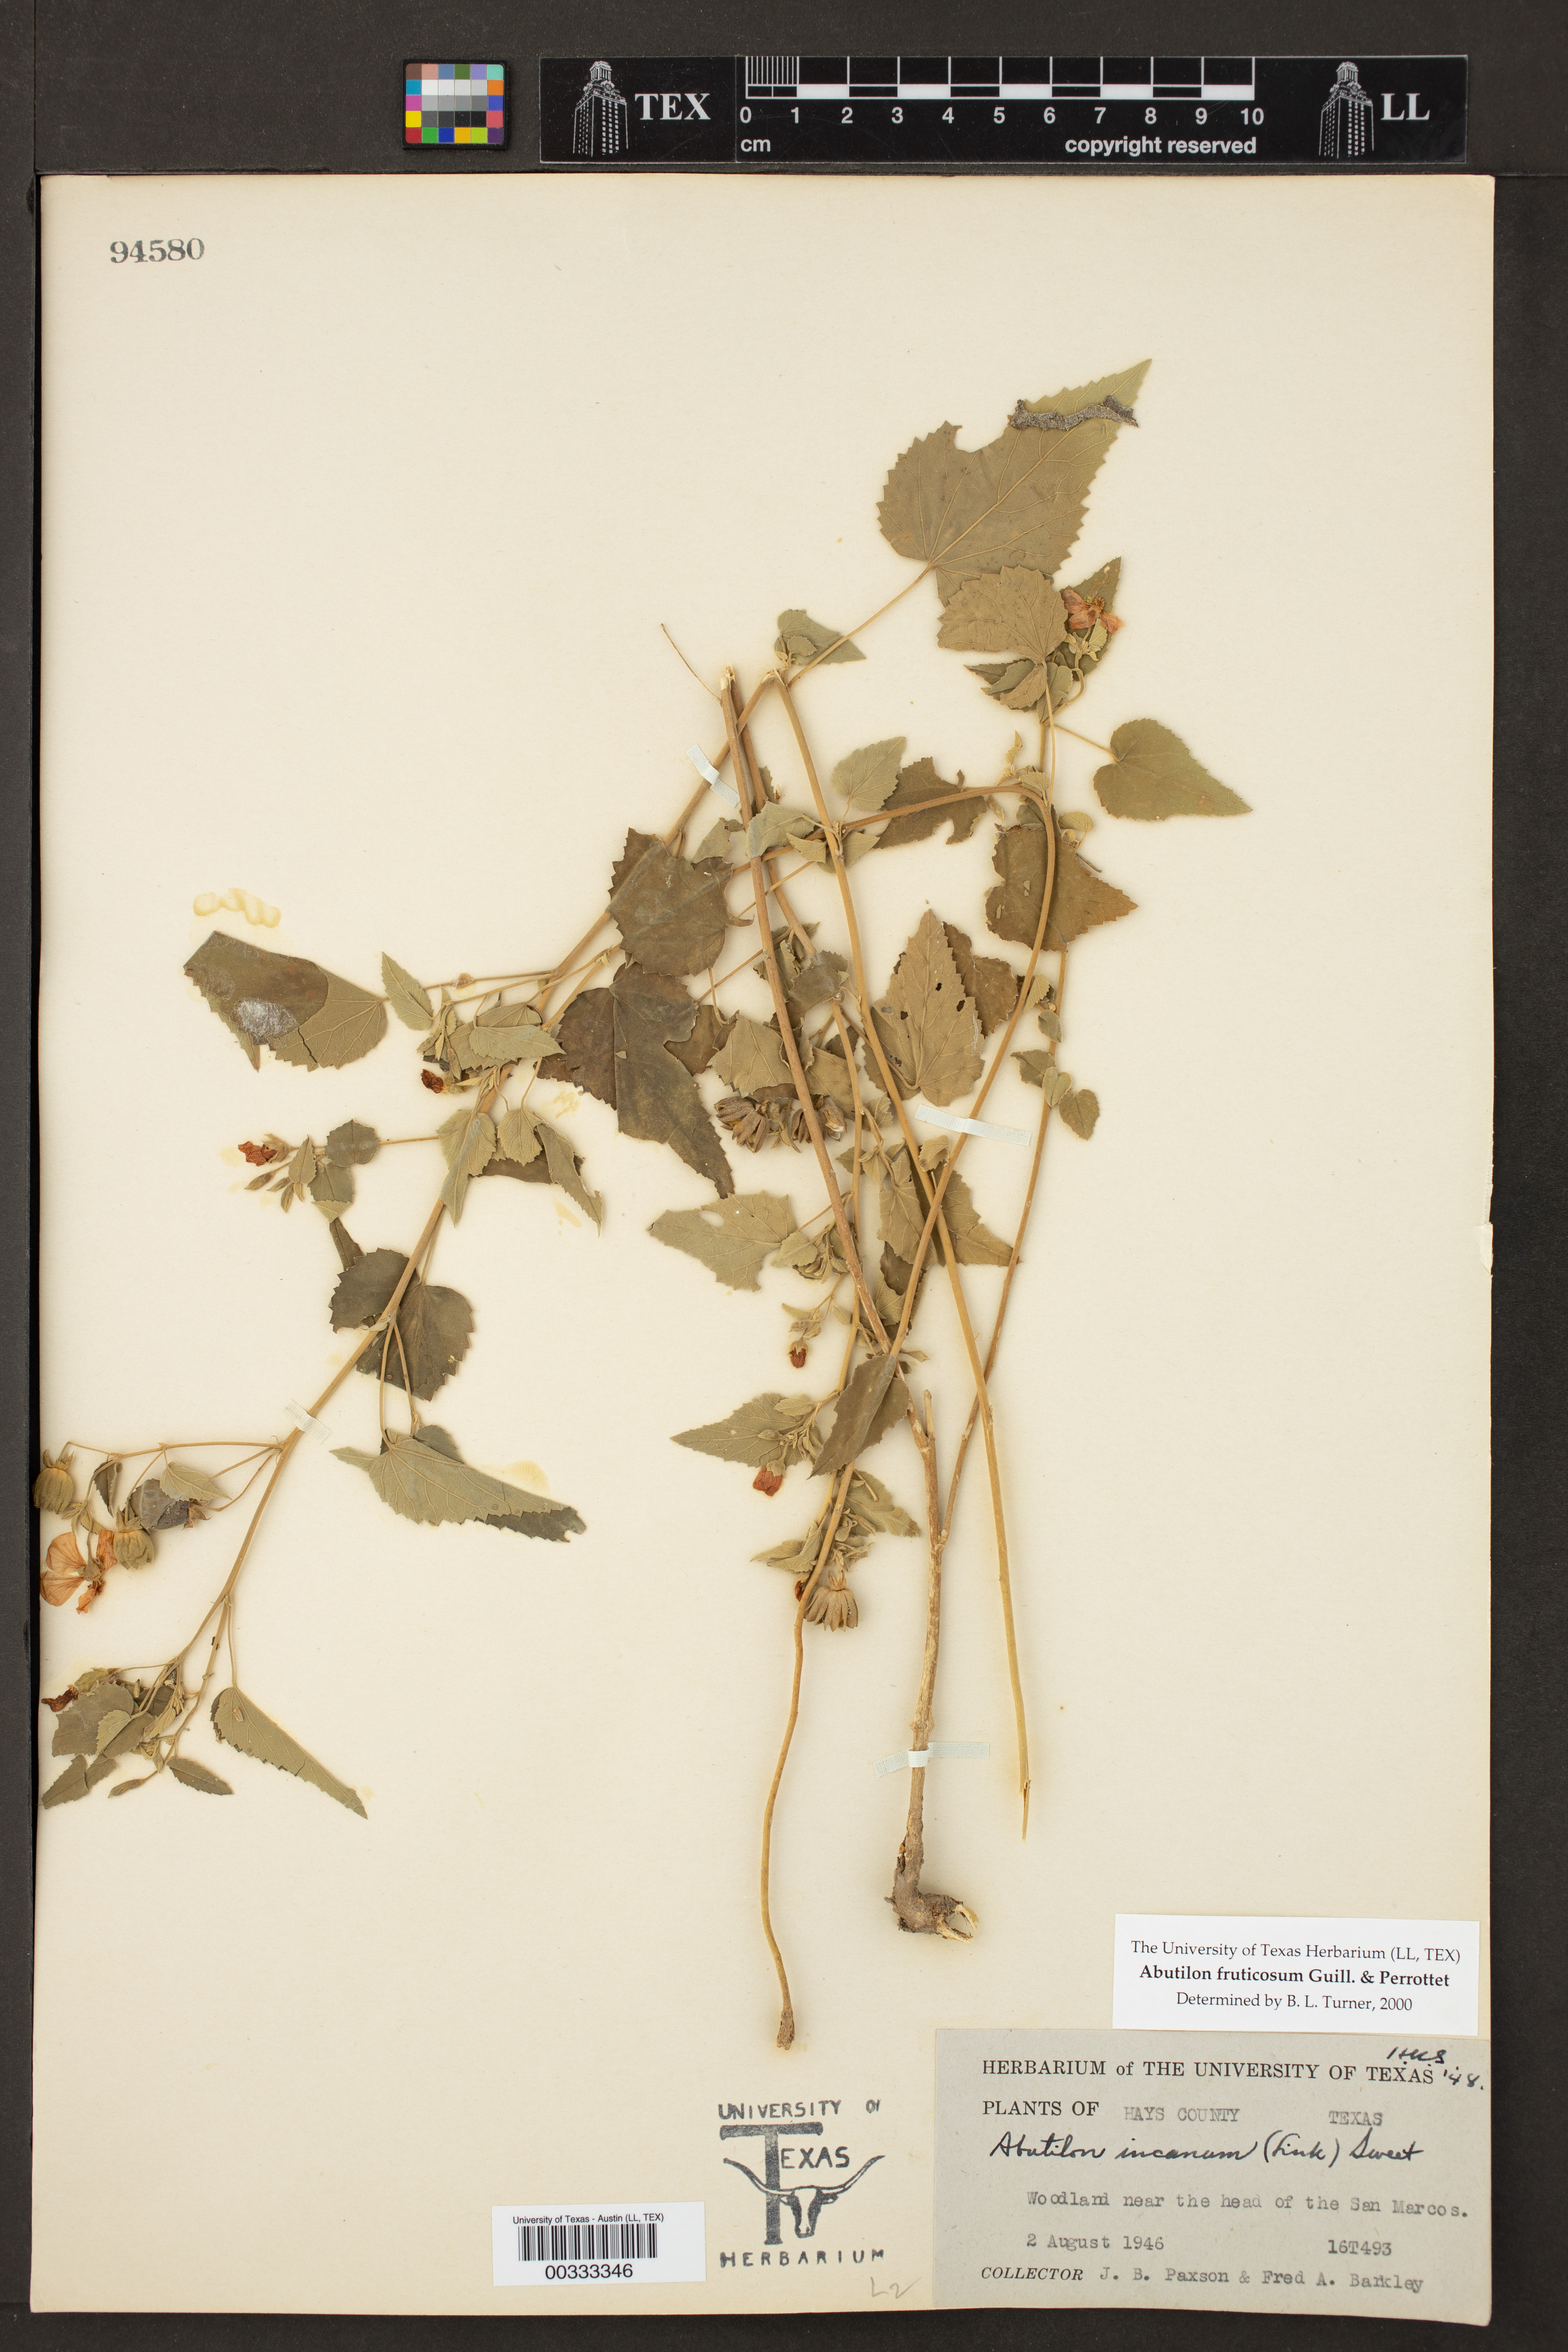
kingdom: Plantae
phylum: Tracheophyta
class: Magnoliopsida
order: Malvales
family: Malvaceae
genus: Abutilon
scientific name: Abutilon fruticosum
